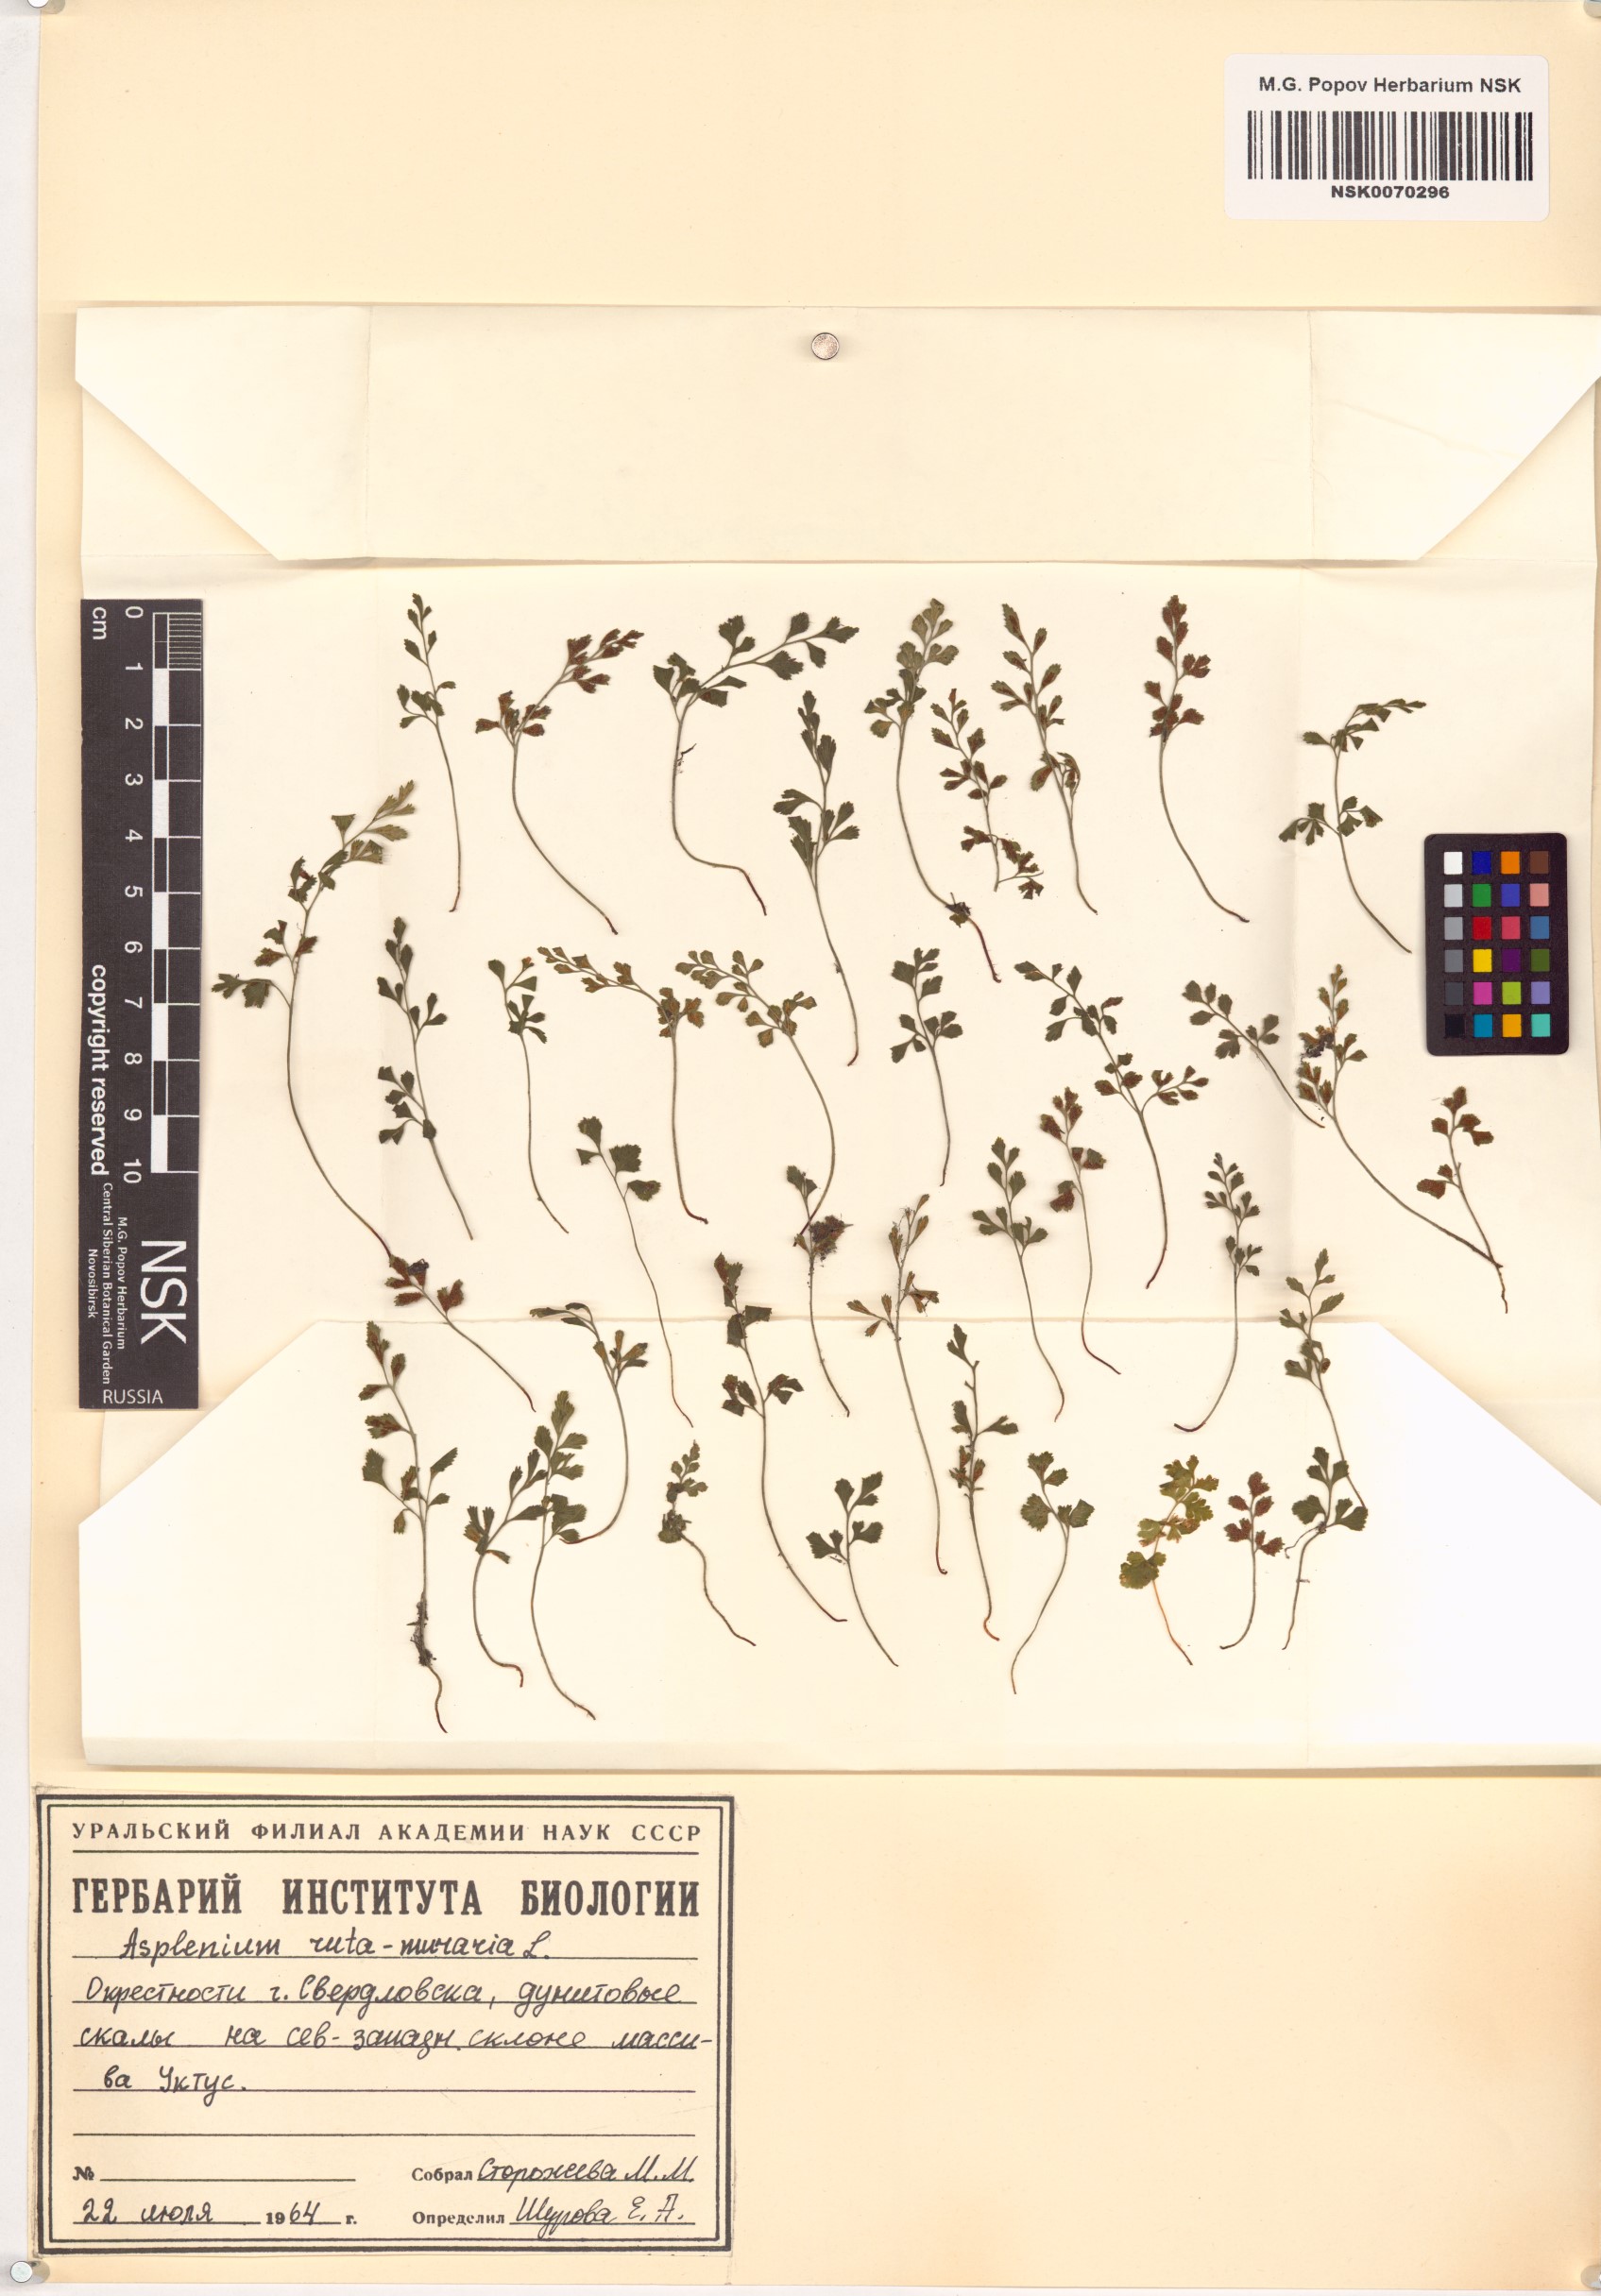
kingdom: Plantae
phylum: Tracheophyta
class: Polypodiopsida
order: Polypodiales
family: Aspleniaceae
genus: Asplenium
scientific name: Asplenium ruta-muraria
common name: Wall-rue
